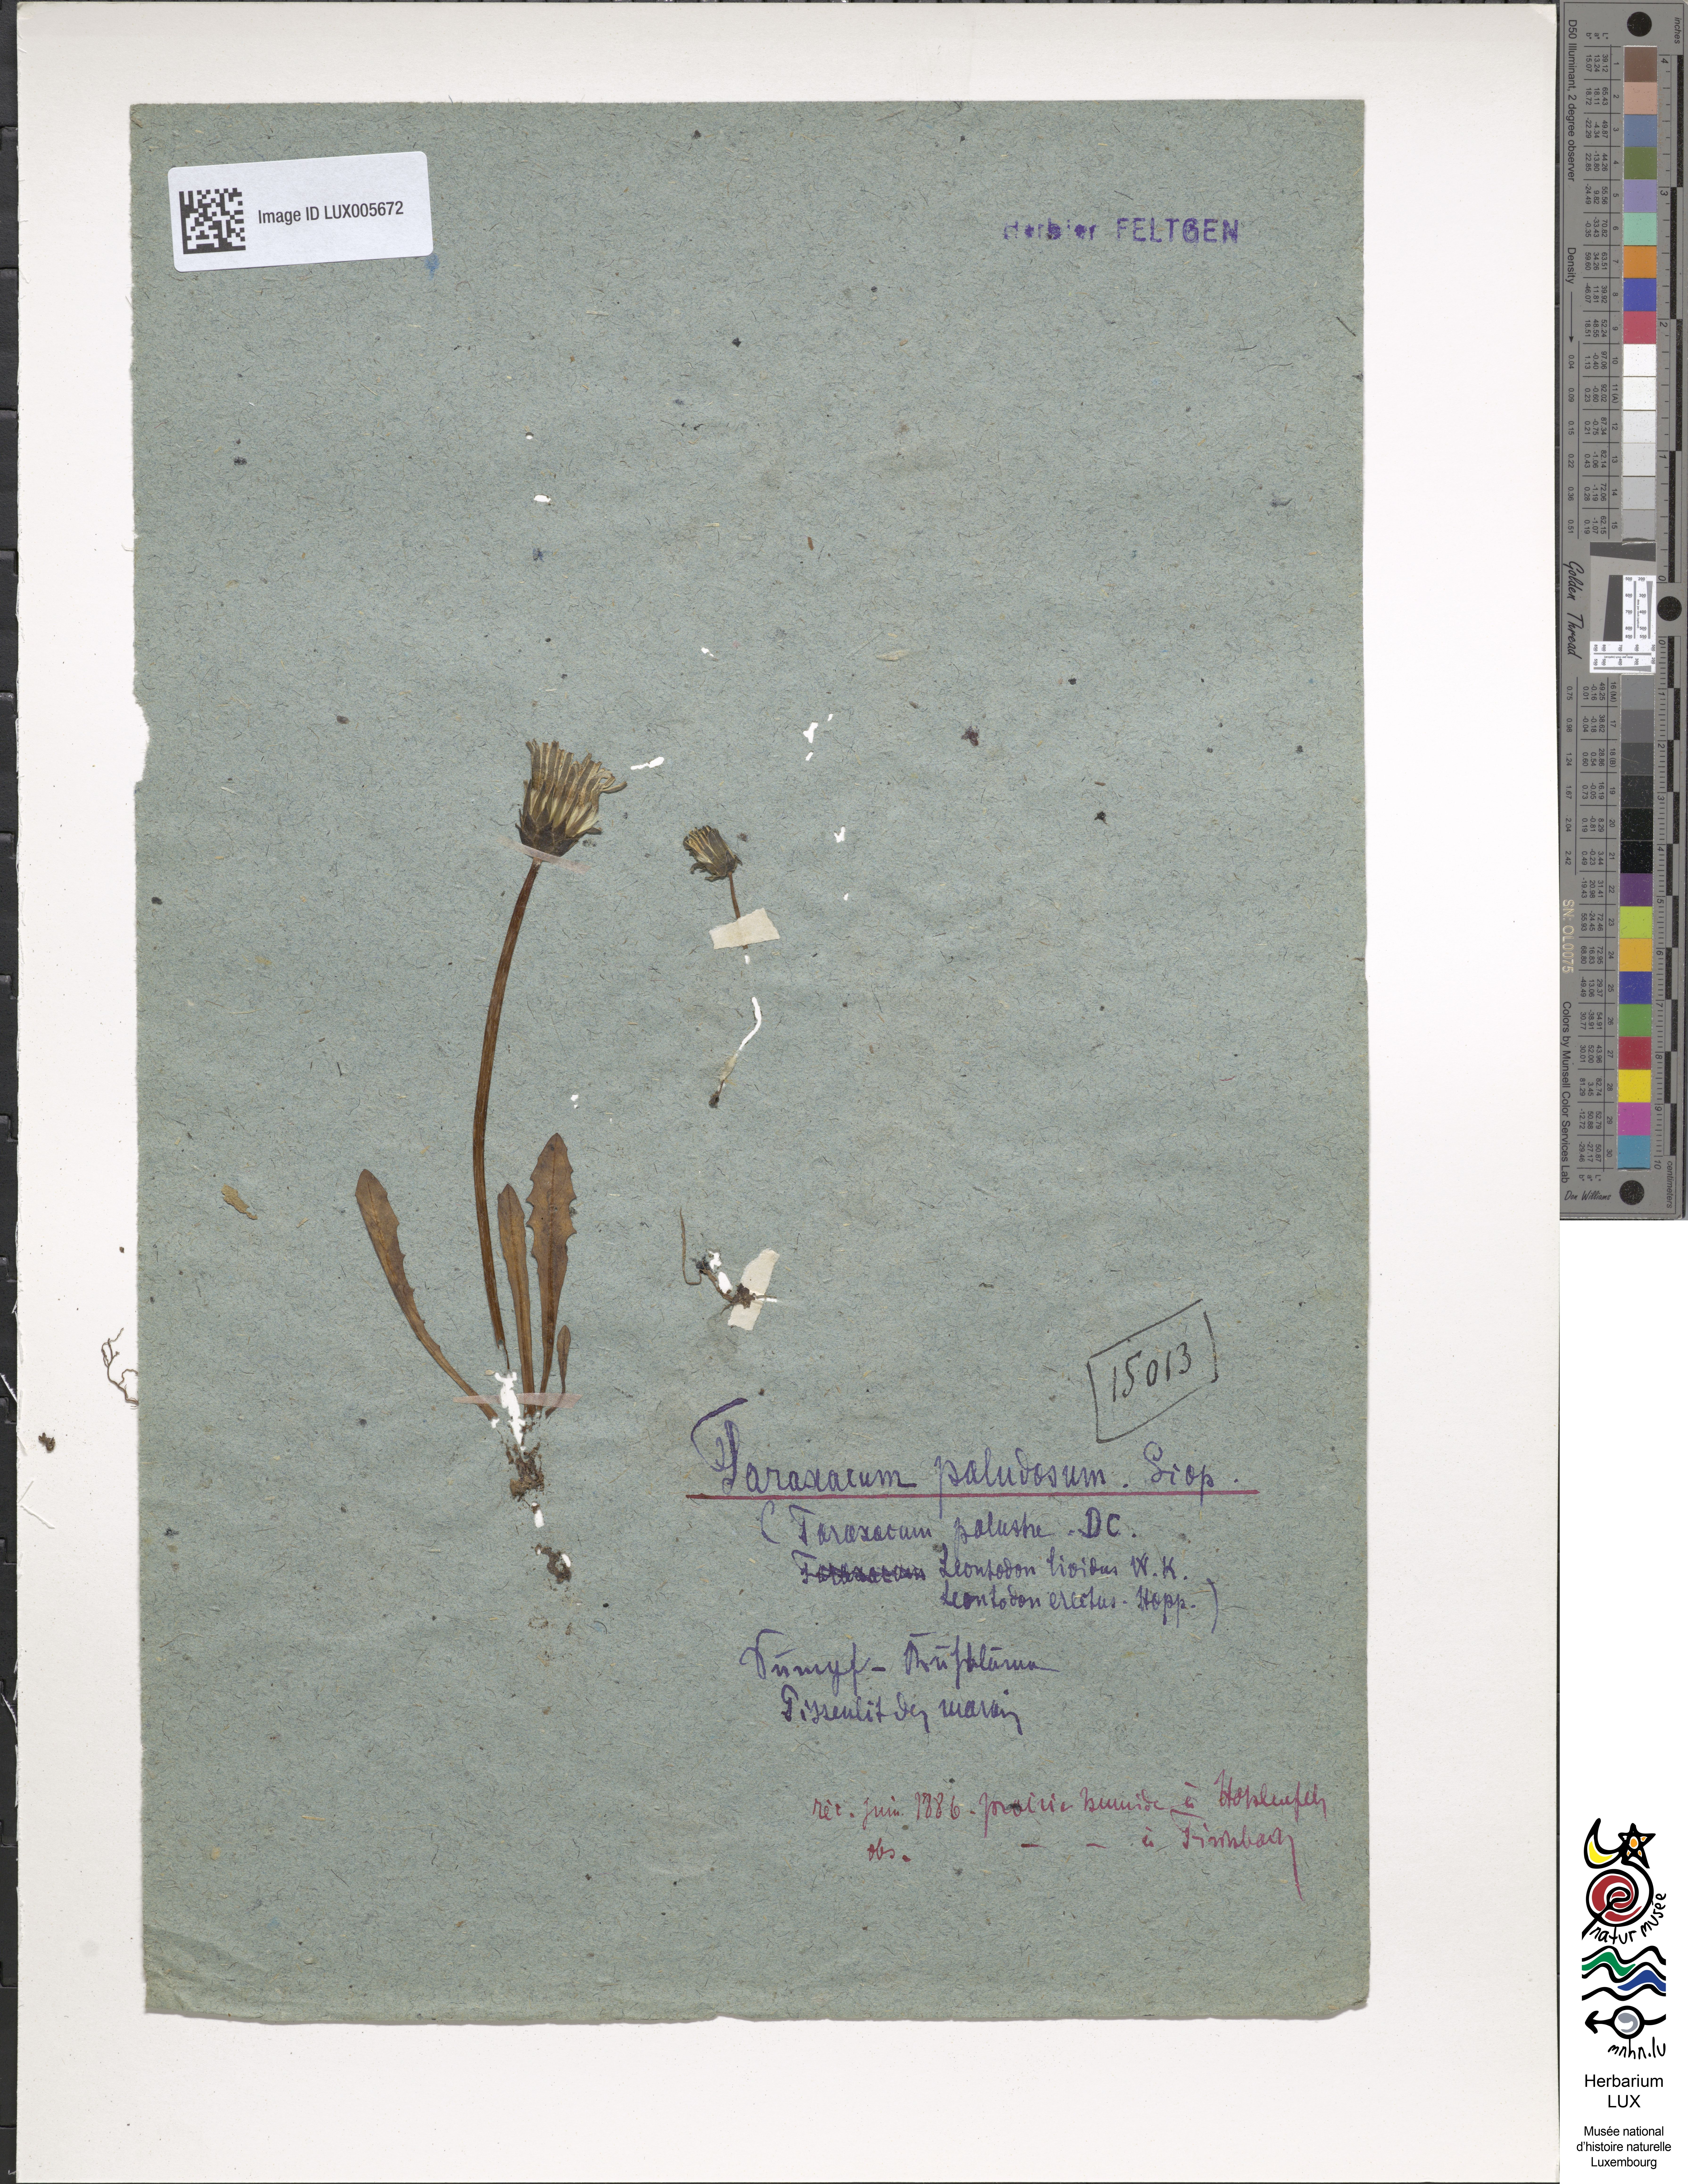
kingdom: Plantae
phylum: Tracheophyta
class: Magnoliopsida
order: Asterales
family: Asteraceae
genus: Taraxacum
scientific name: Taraxacum palustre
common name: Marsh dandelion
